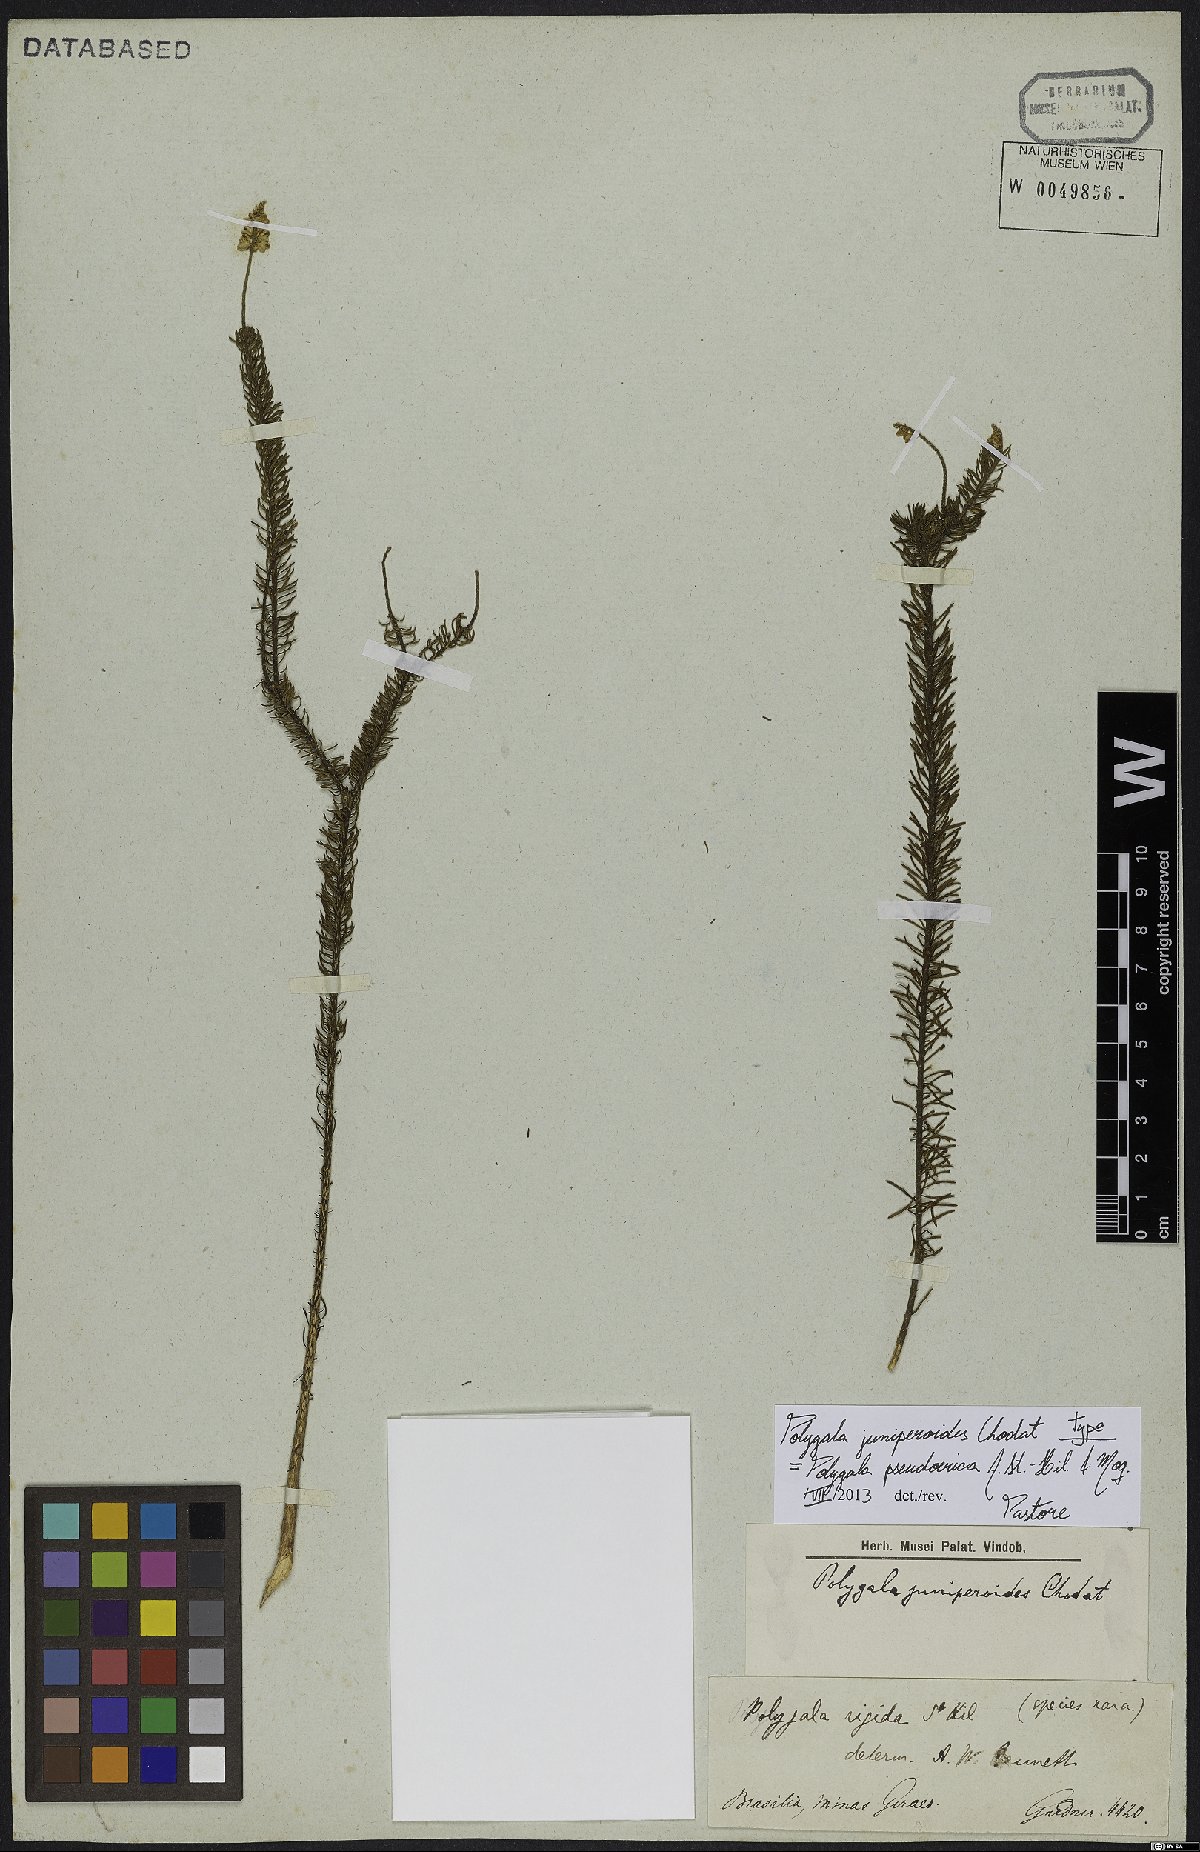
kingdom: Plantae
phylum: Tracheophyta
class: Magnoliopsida
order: Fabales
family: Polygalaceae
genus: Polygala
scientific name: Polygala pseudoerica
